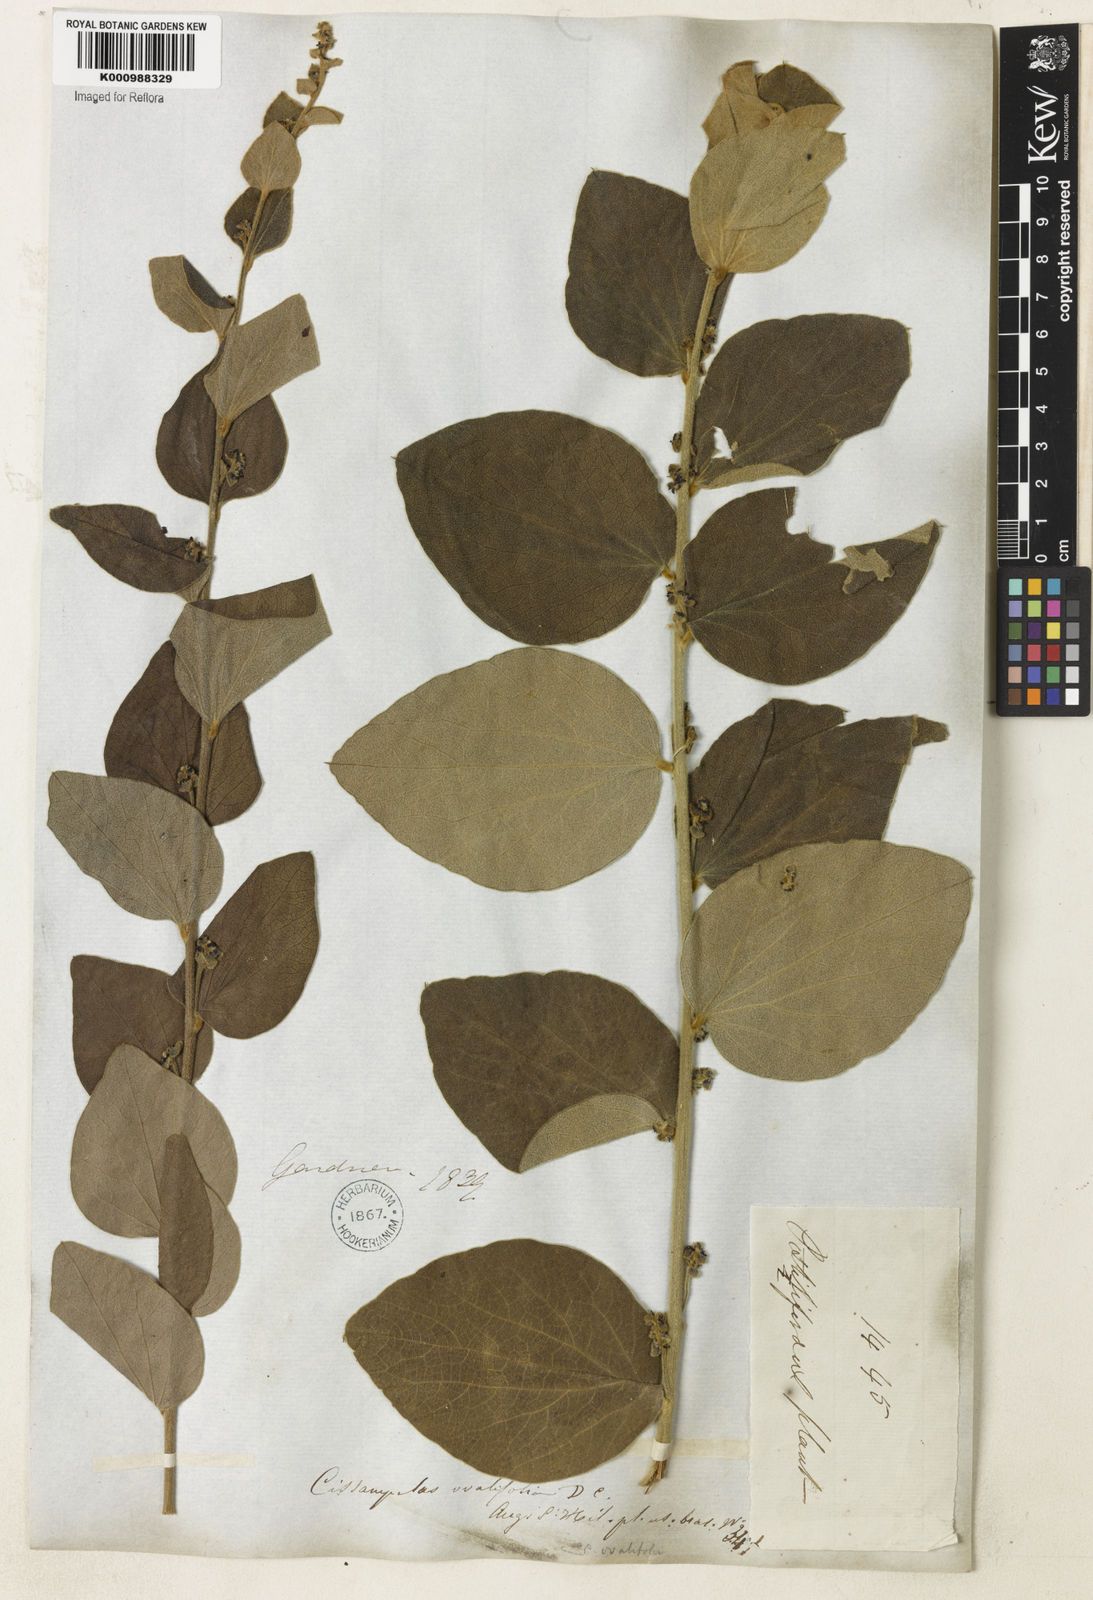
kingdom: Plantae
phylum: Tracheophyta
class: Magnoliopsida
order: Ranunculales
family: Menispermaceae
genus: Cissampelos
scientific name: Cissampelos ovalifolia
